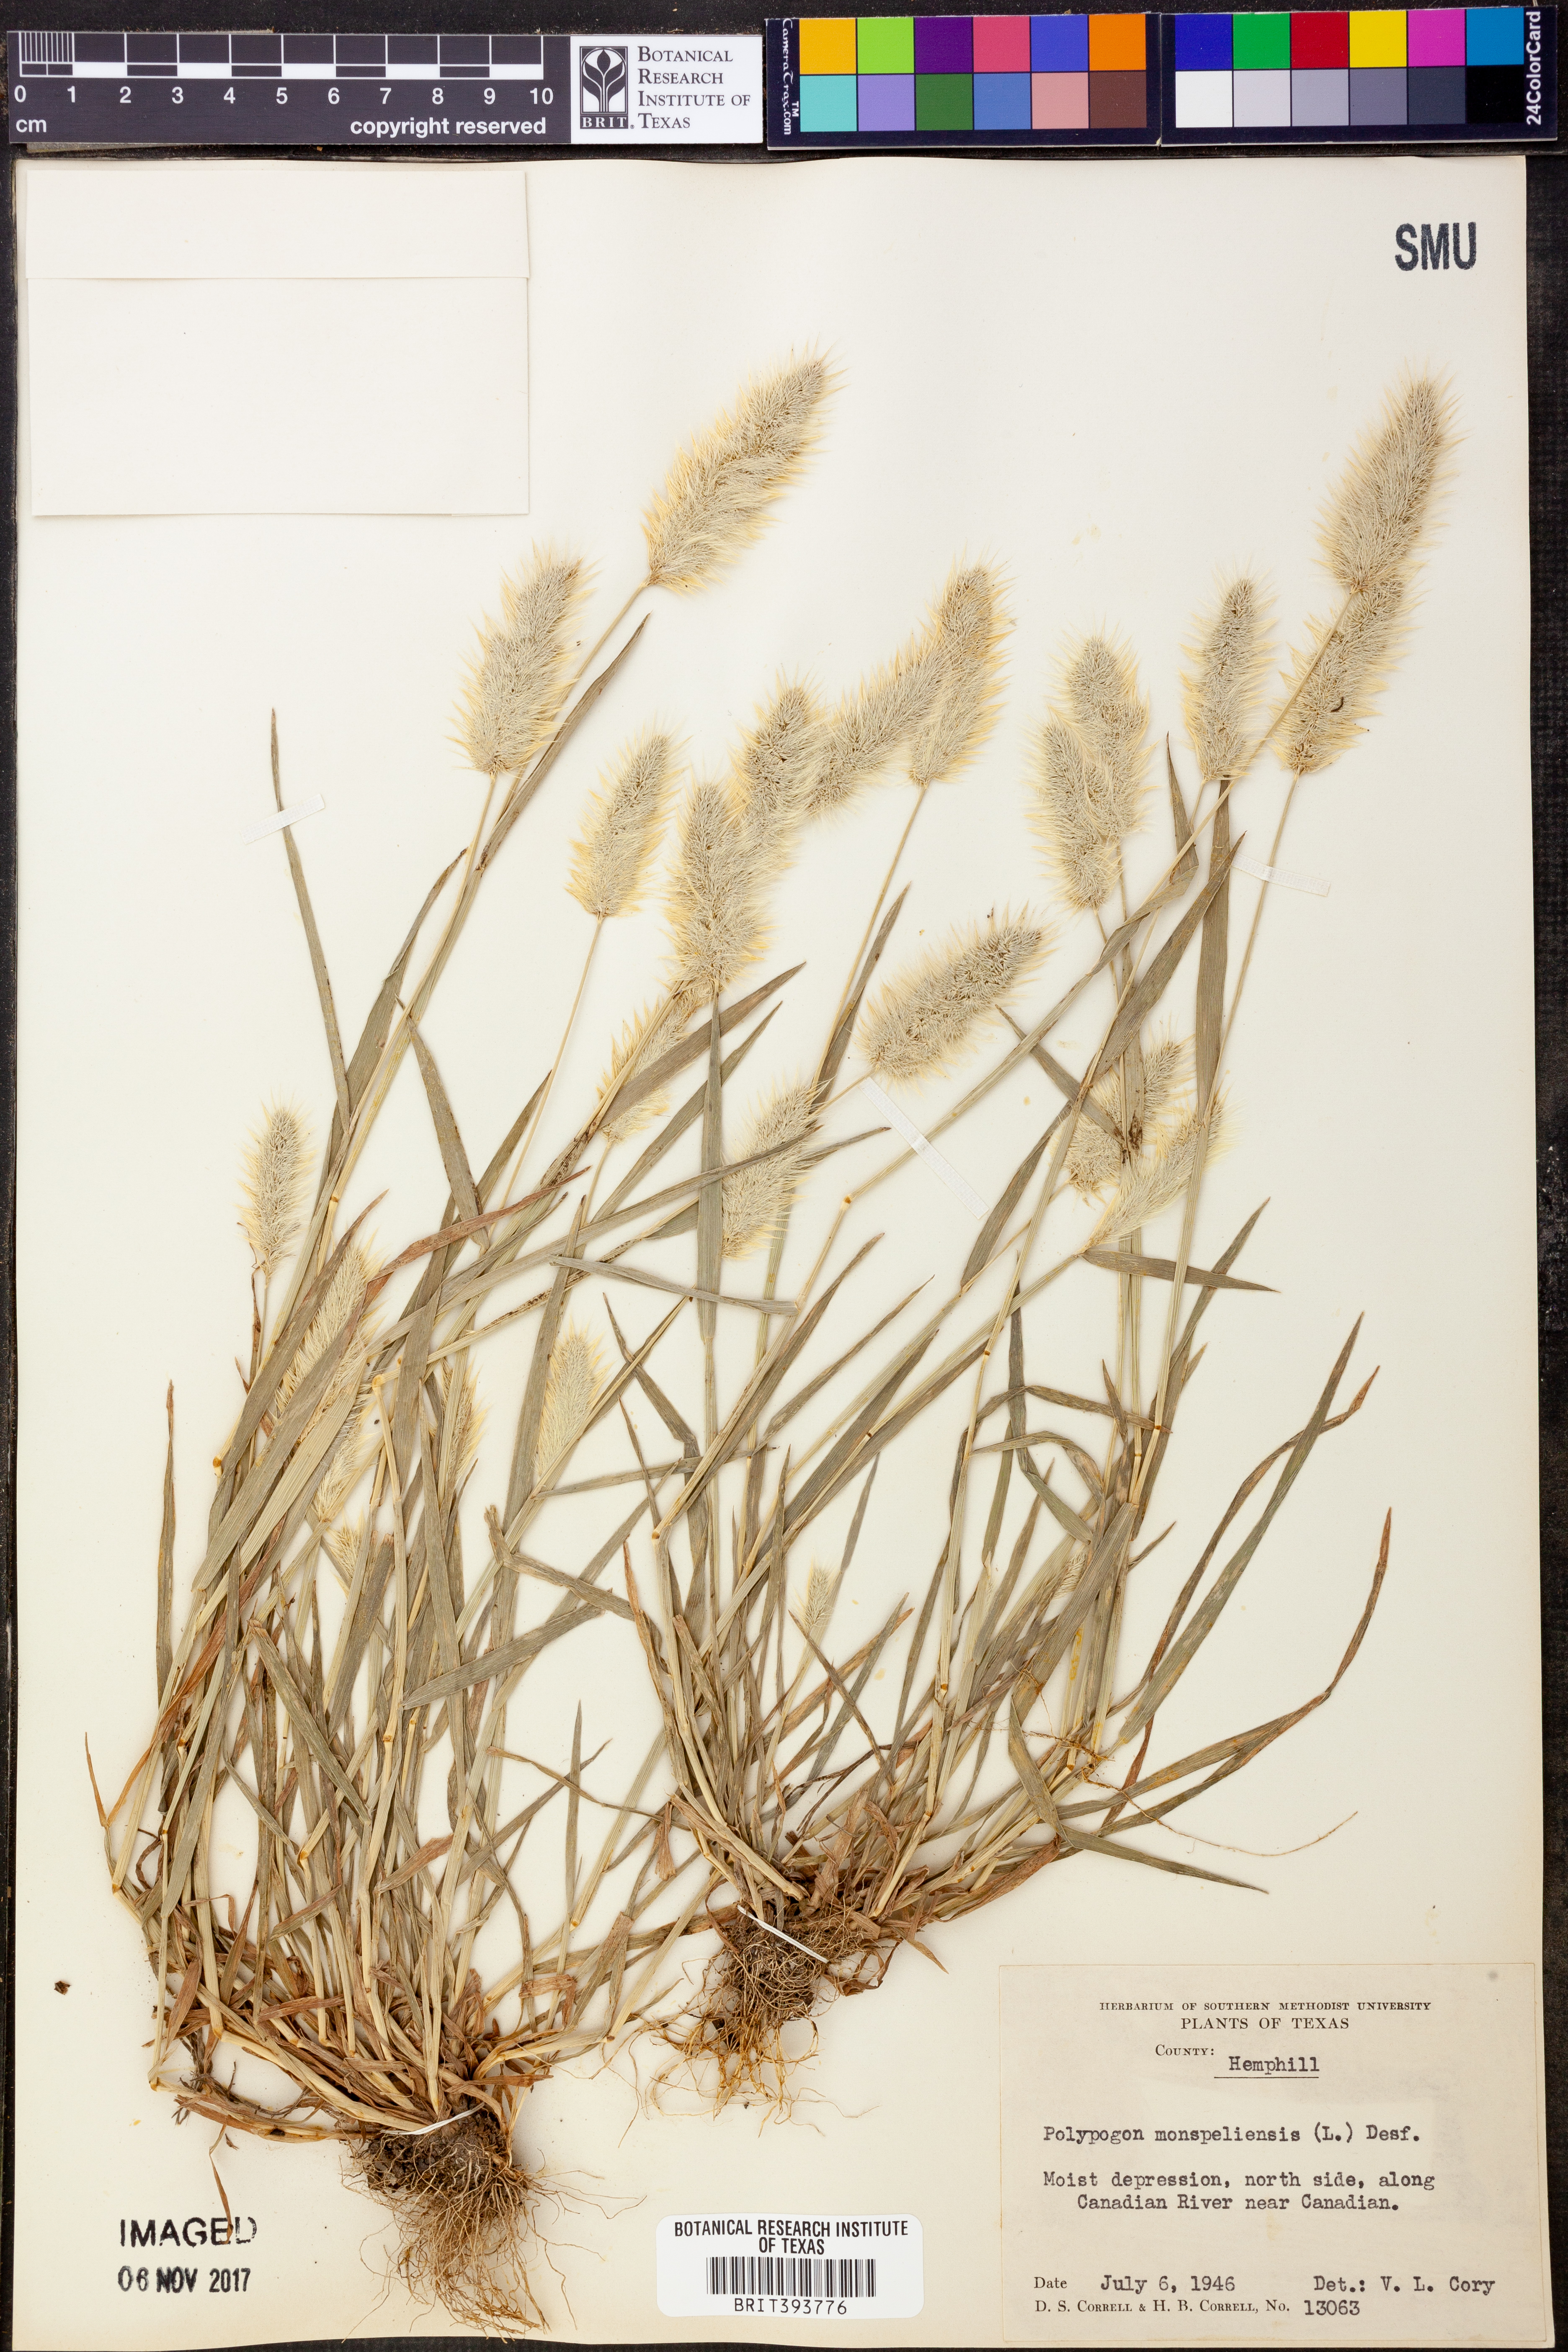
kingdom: Plantae
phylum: Tracheophyta
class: Liliopsida
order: Poales
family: Poaceae
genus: Polypogon
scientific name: Polypogon monspeliensis
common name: Annual rabbitsfoot grass
